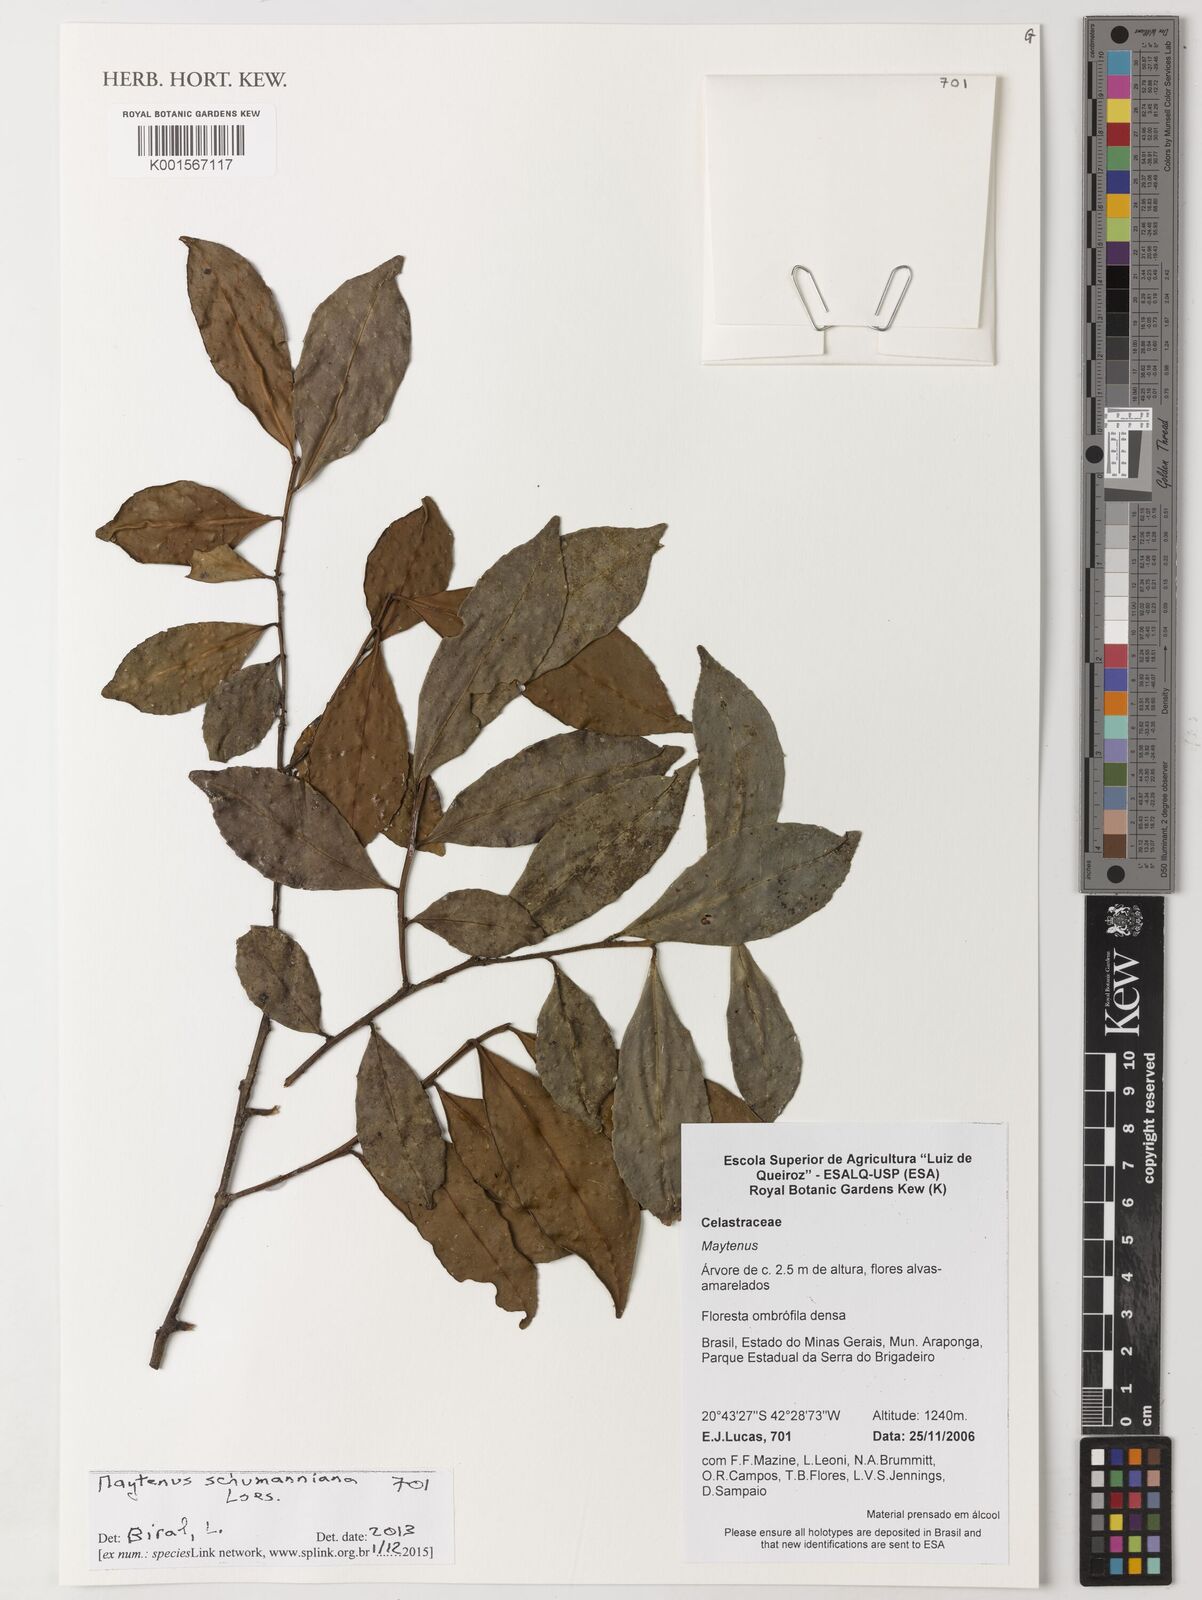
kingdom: Plantae
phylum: Tracheophyta
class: Magnoliopsida
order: Celastrales
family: Celastraceae
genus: Monteverdia
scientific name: Monteverdia schumanniana
